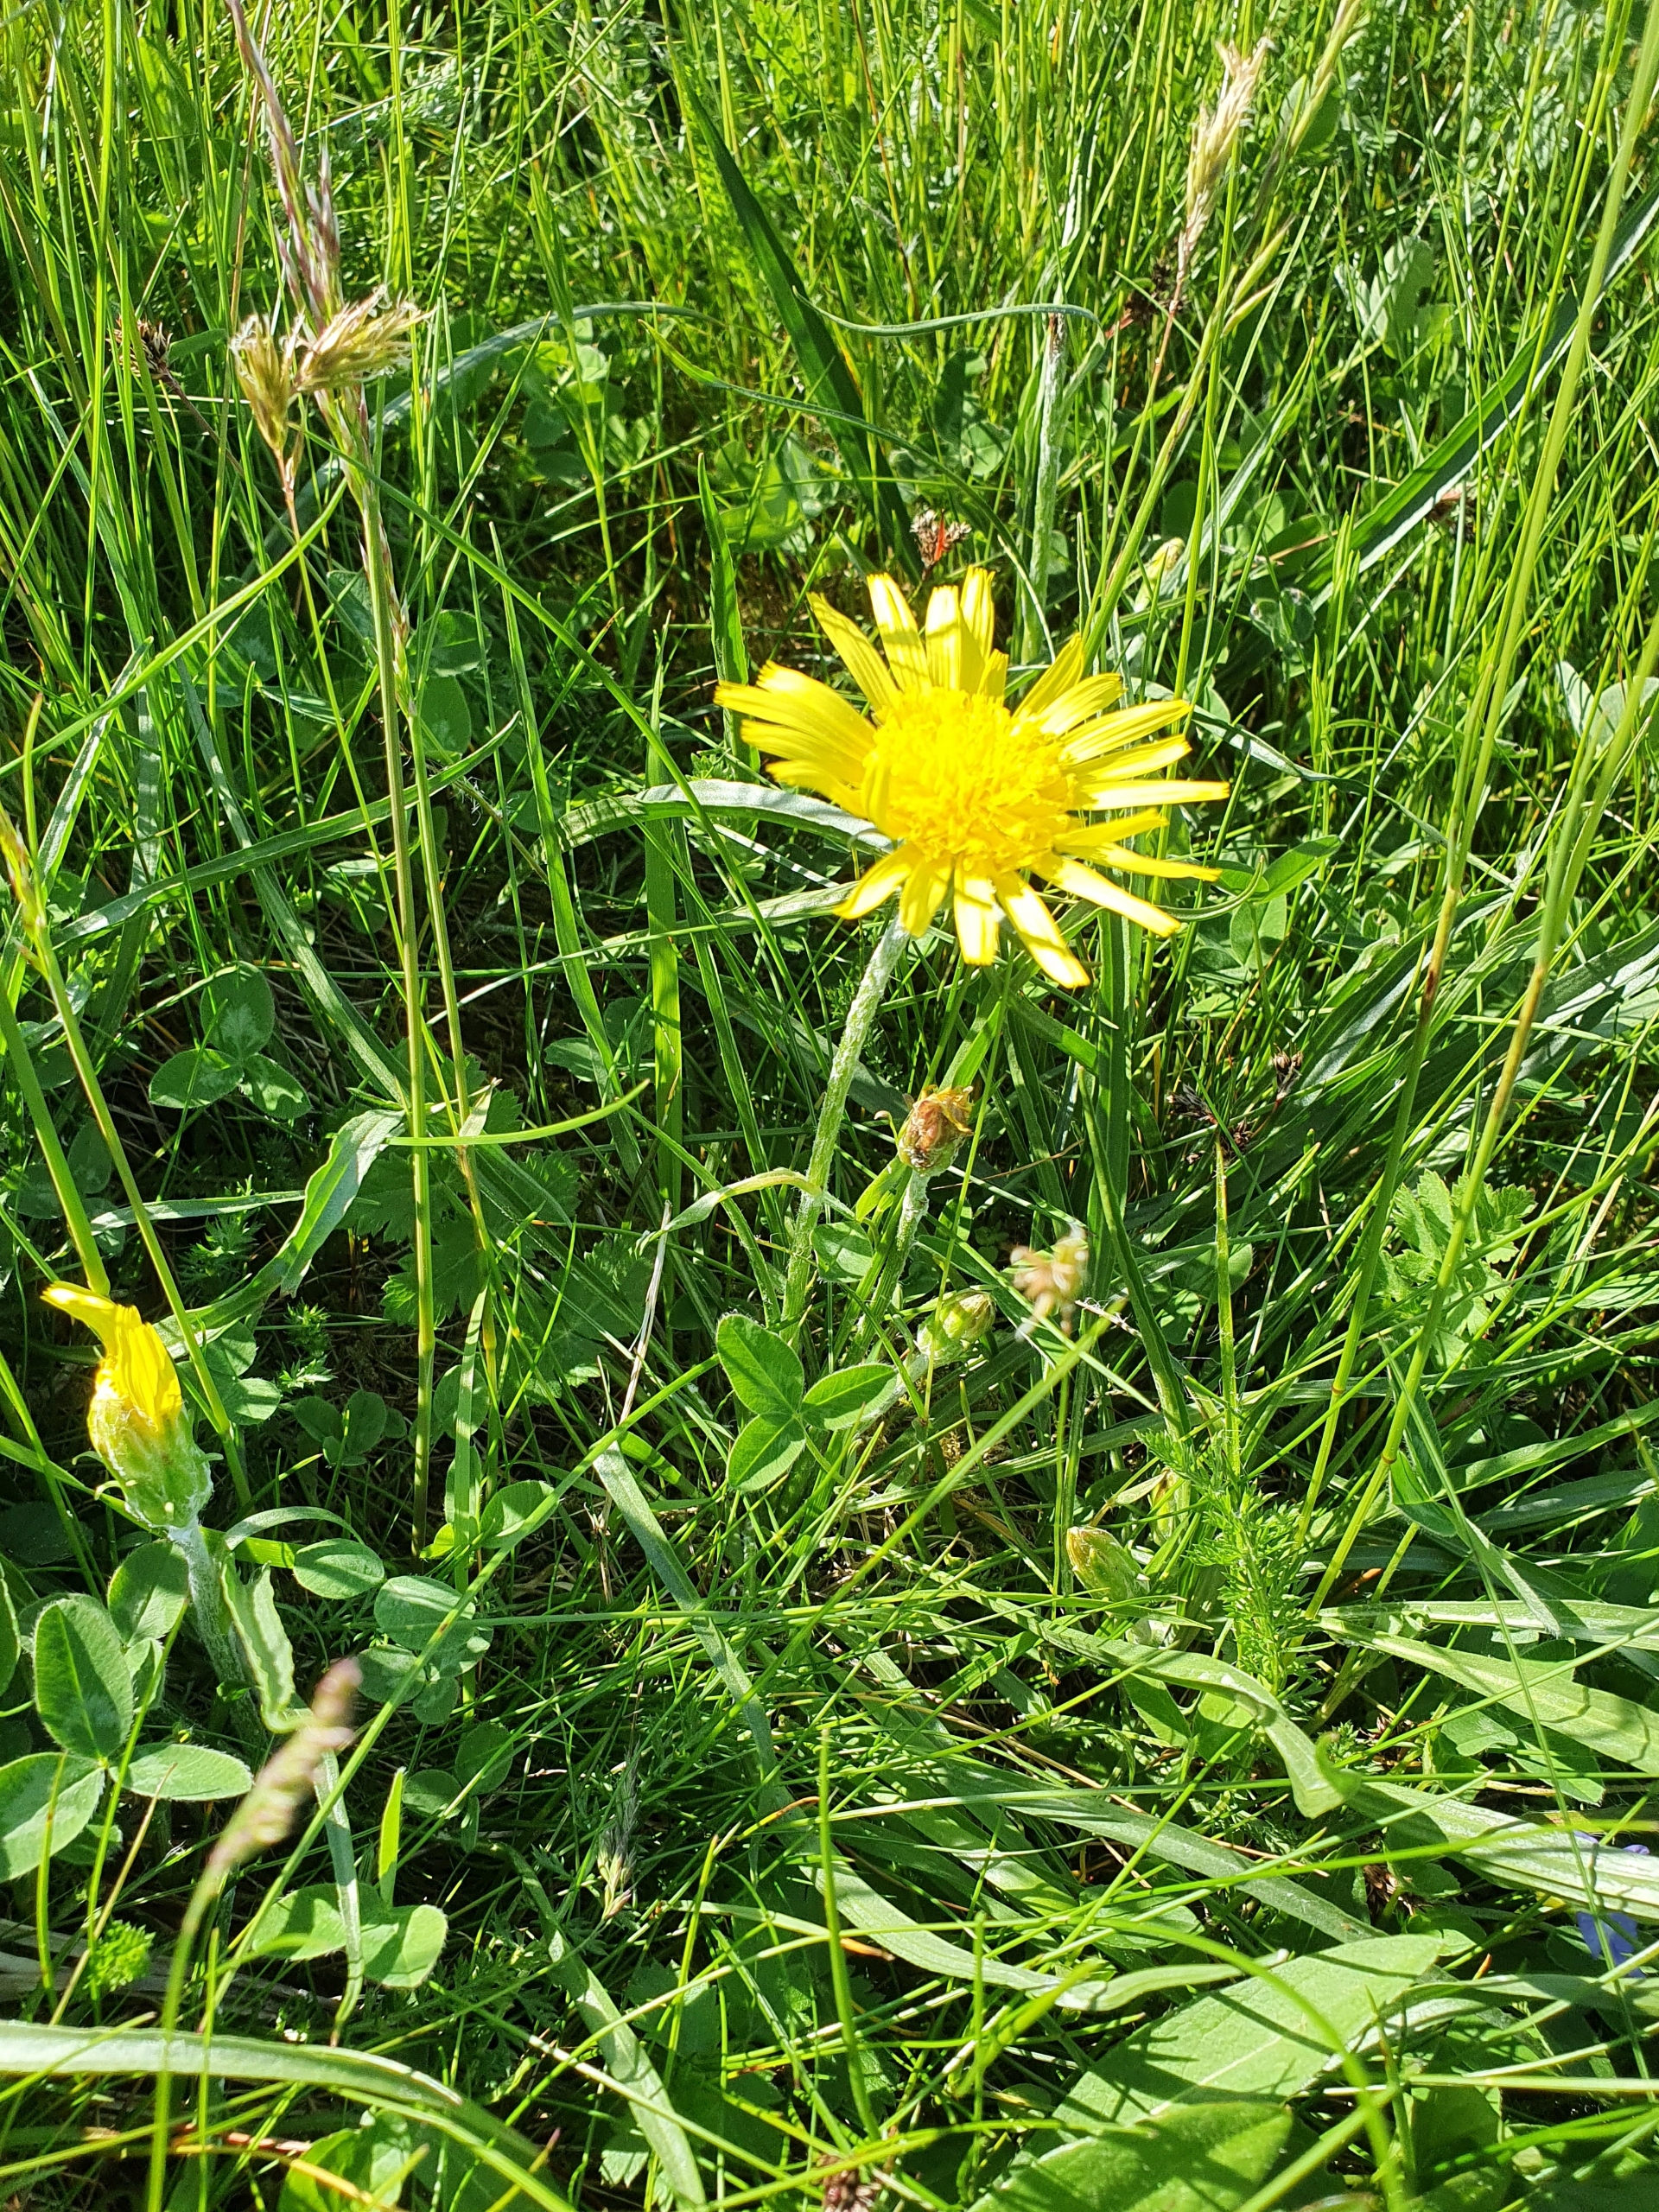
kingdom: Plantae
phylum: Tracheophyta
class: Magnoliopsida
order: Asterales
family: Asteraceae
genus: Scorzonera
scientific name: Scorzonera humilis
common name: Lav skorsoner
